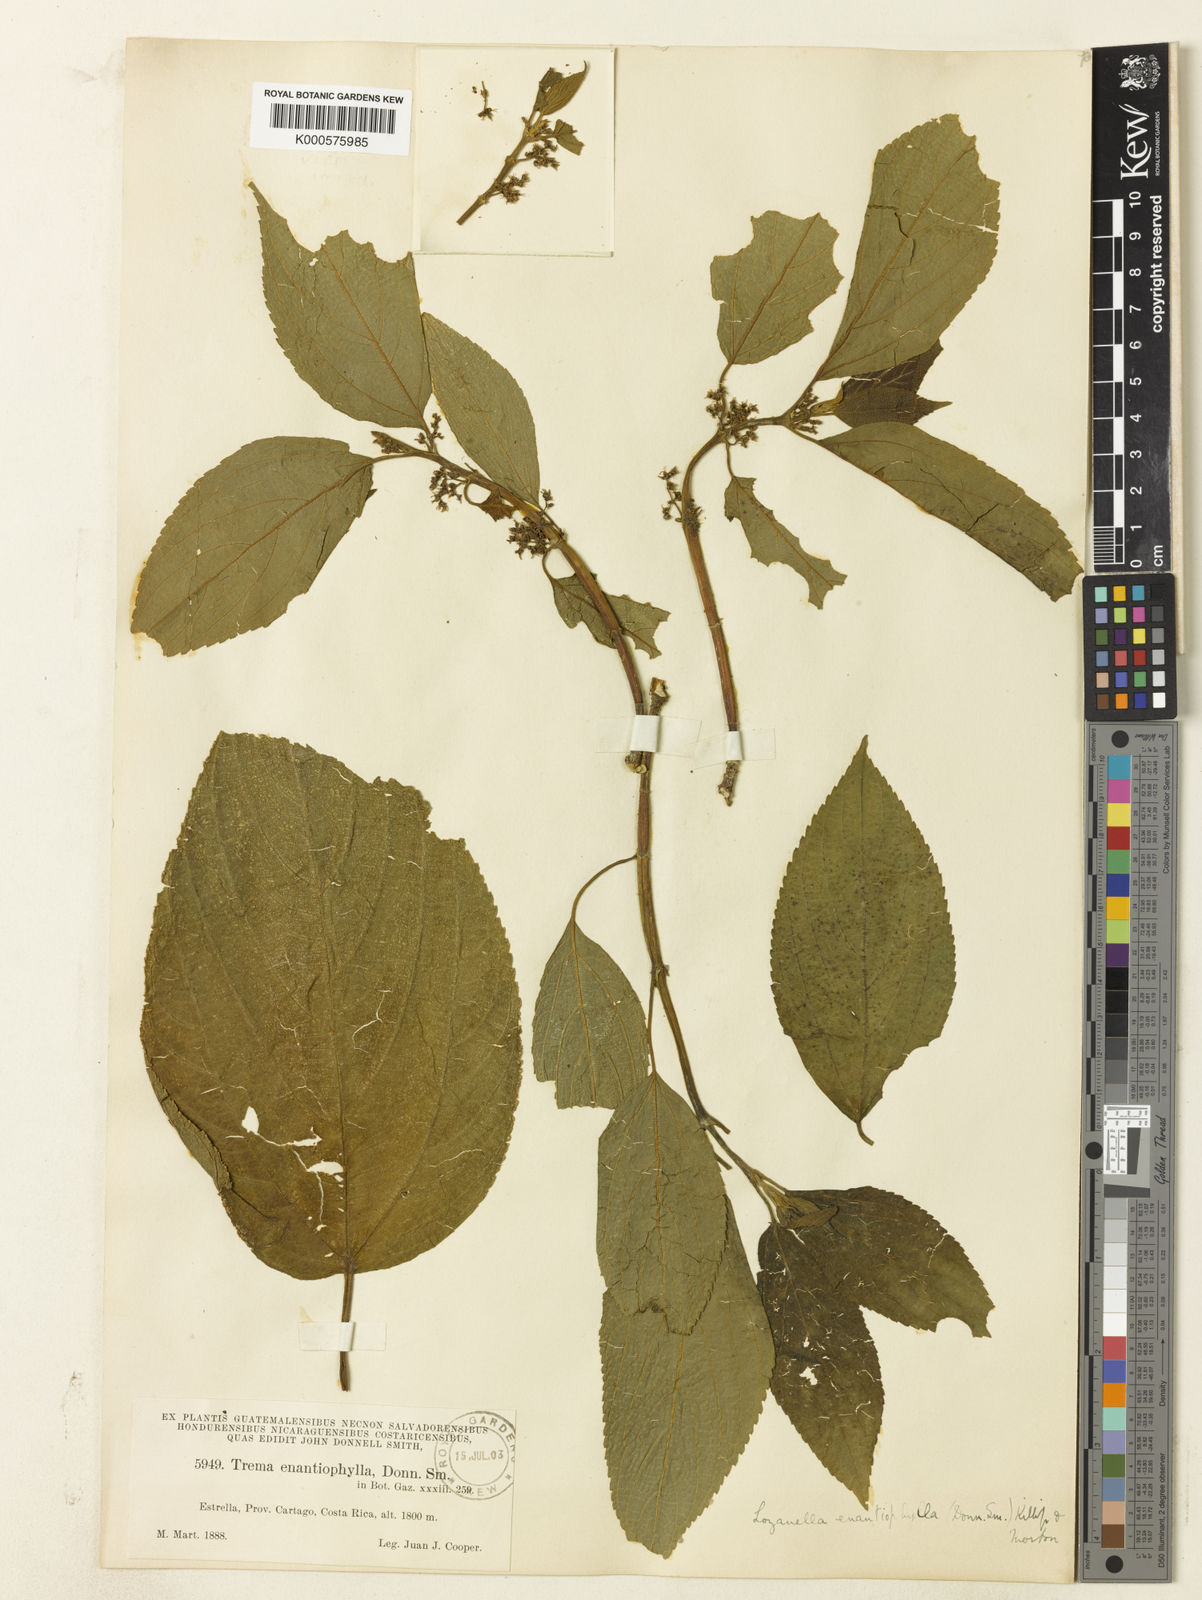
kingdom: Plantae
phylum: Tracheophyta
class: Magnoliopsida
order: Rosales
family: Cannabaceae
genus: Lozanella
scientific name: Lozanella enantiophylla
